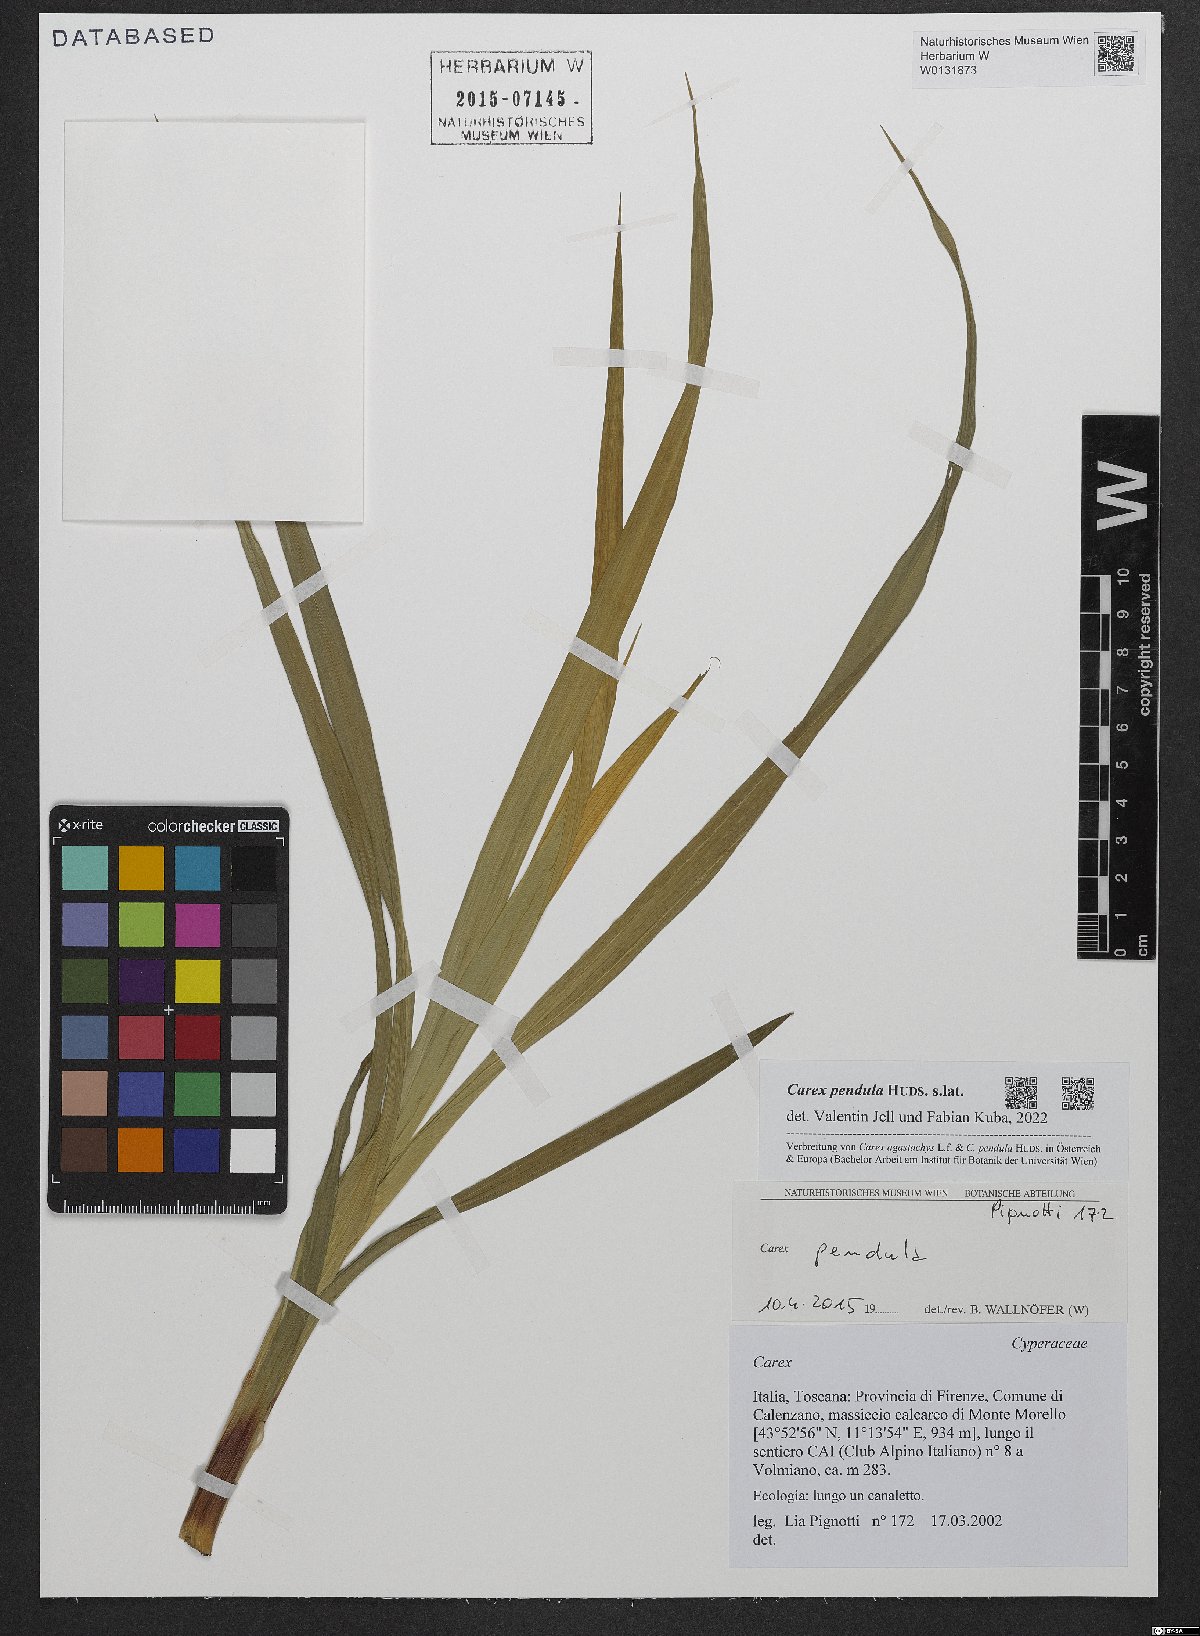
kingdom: Plantae
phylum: Tracheophyta
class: Liliopsida
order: Poales
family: Cyperaceae
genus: Carex
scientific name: Carex pendula
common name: Pendulous sedge
